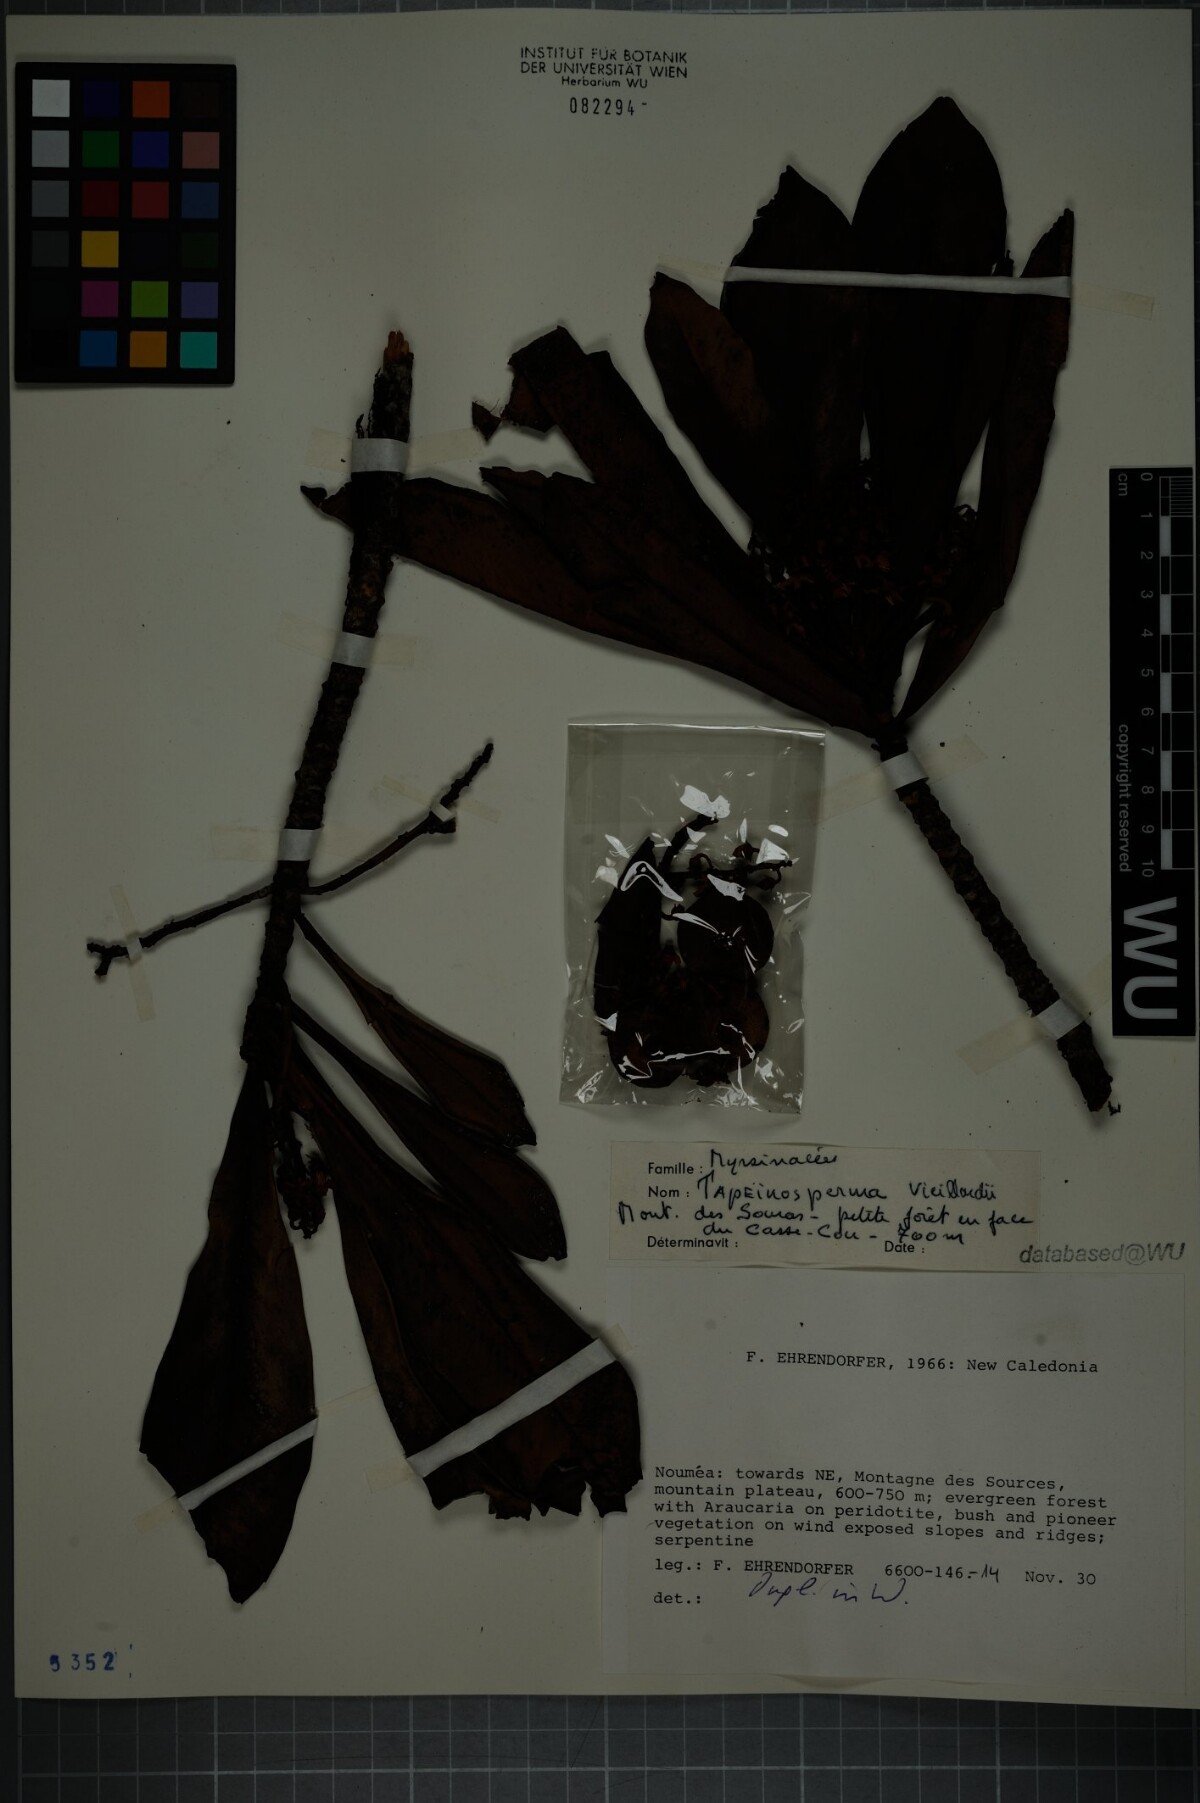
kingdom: Plantae
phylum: Tracheophyta
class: Magnoliopsida
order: Ericales
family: Primulaceae
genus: Tapeinosperma
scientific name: Tapeinosperma vieillardii
